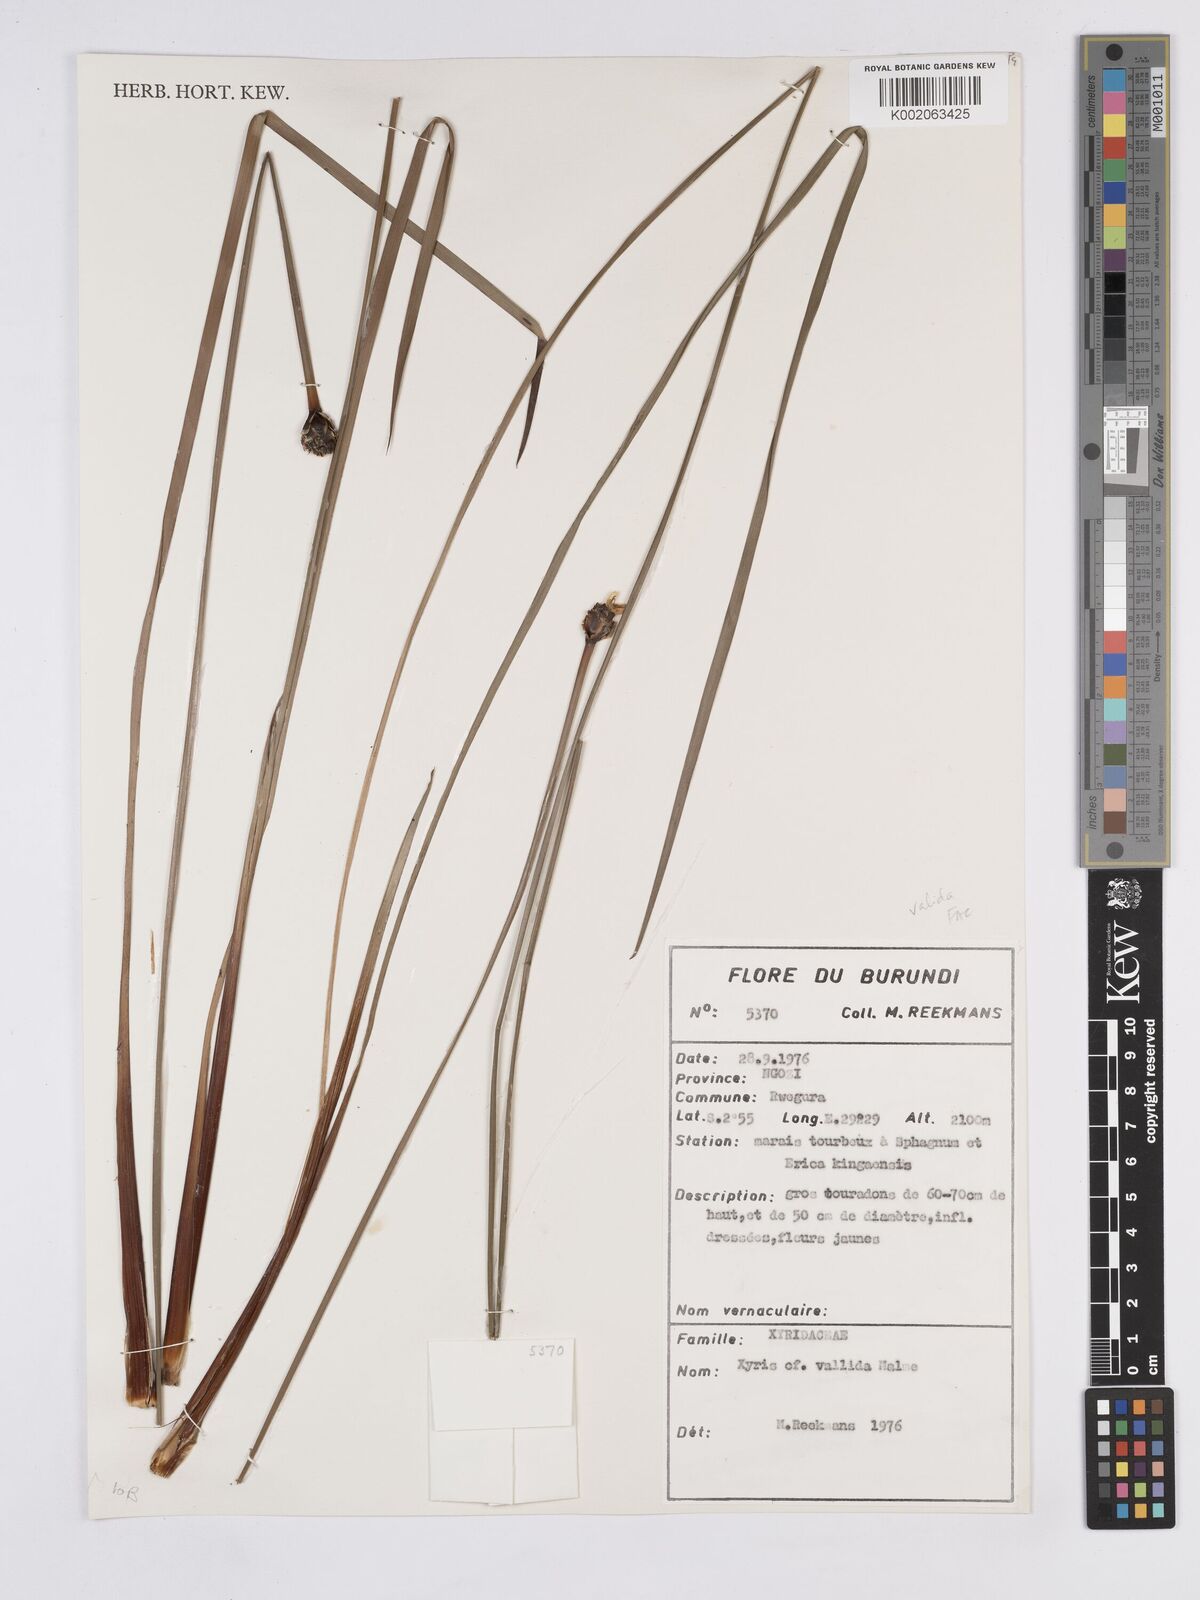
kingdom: Plantae
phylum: Tracheophyta
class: Liliopsida
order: Poales
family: Xyridaceae
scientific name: Xyridaceae
